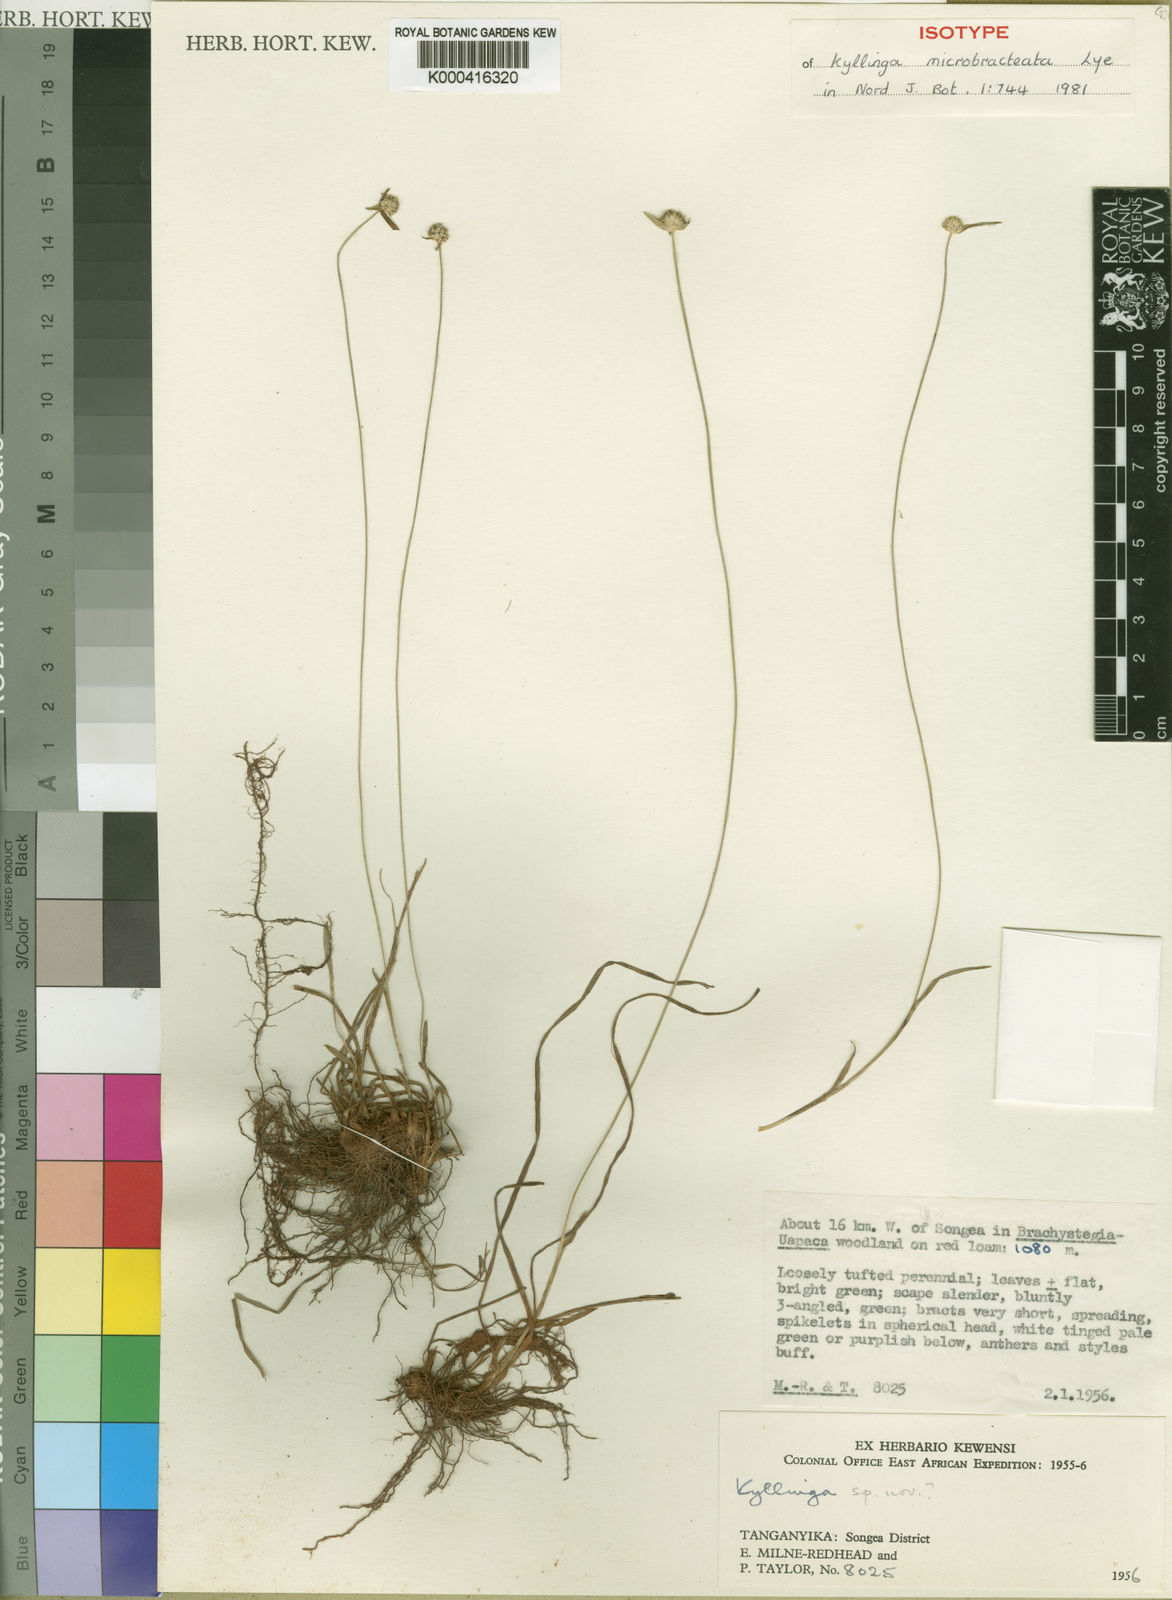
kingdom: Plantae
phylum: Tracheophyta
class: Liliopsida
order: Poales
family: Cyperaceae
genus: Cyperus
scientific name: Cyperus microbracteatus
